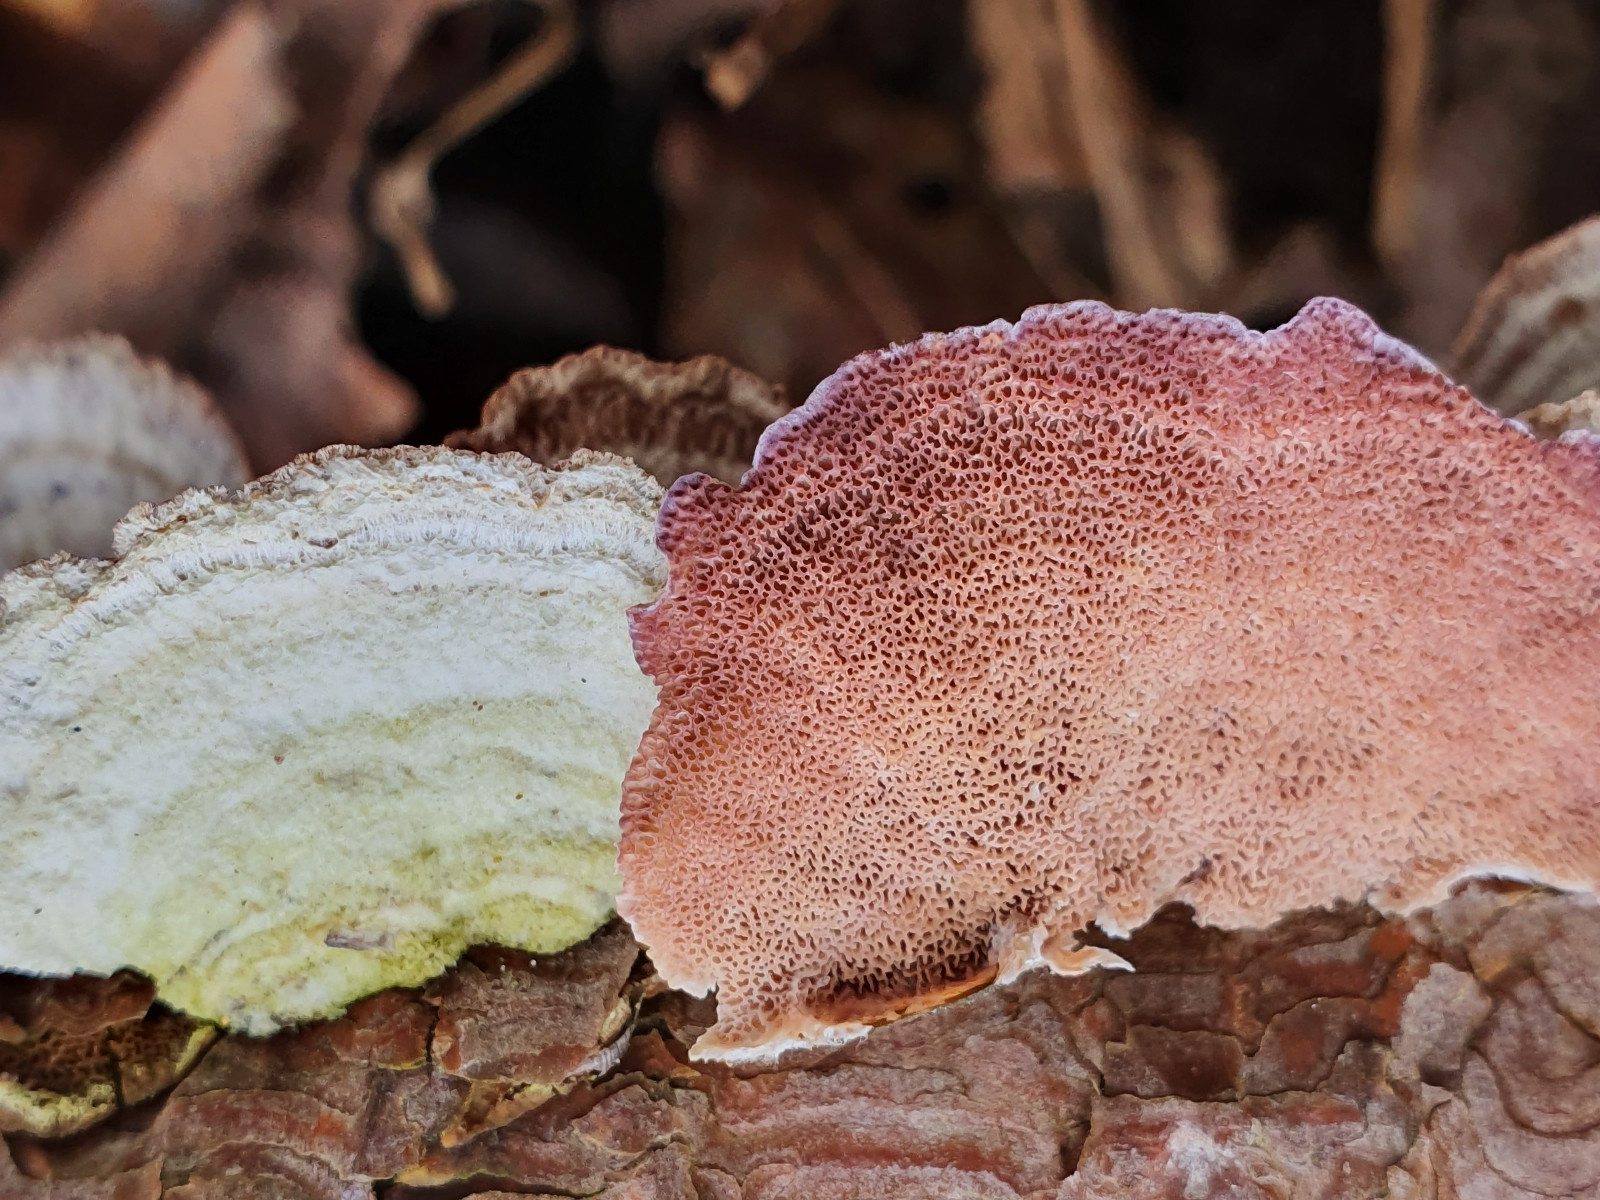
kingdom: Fungi
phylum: Basidiomycota
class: Agaricomycetes
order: Hymenochaetales
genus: Trichaptum
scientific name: Trichaptum abietinum
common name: almindelig violporesvamp
